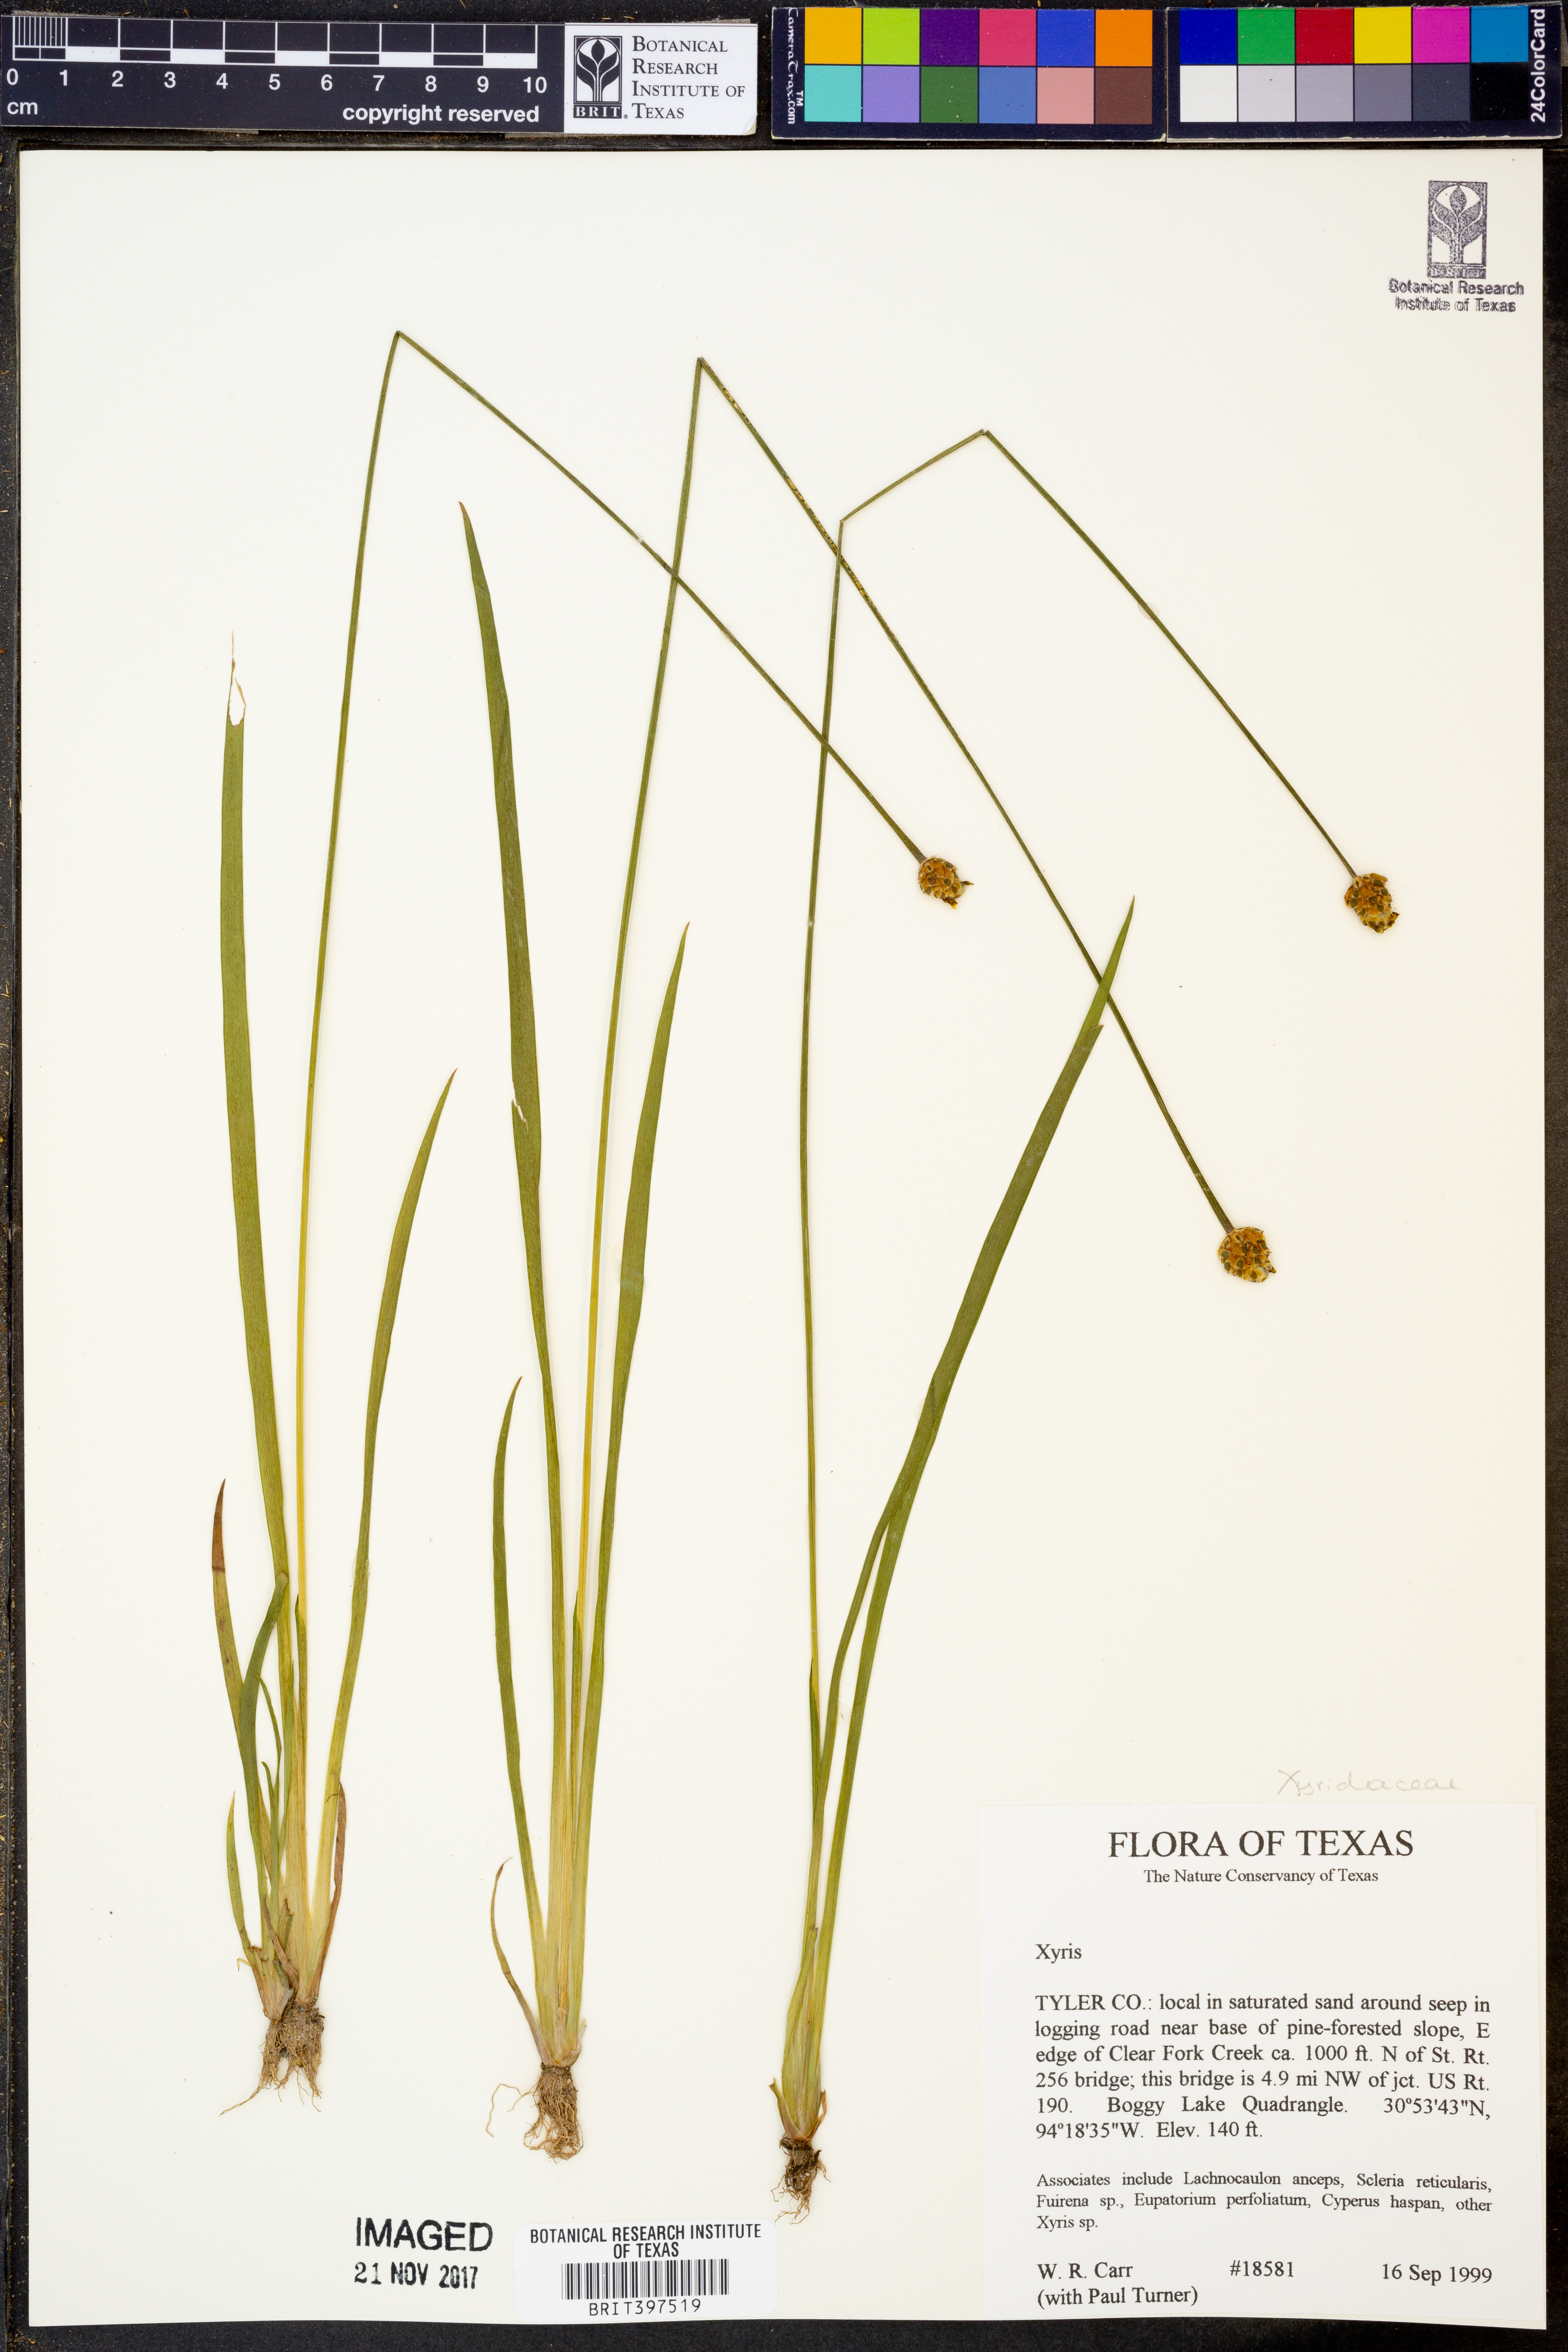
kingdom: Plantae
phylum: Tracheophyta
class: Liliopsida
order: Poales
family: Xyridaceae
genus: Xyris
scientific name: Xyris
